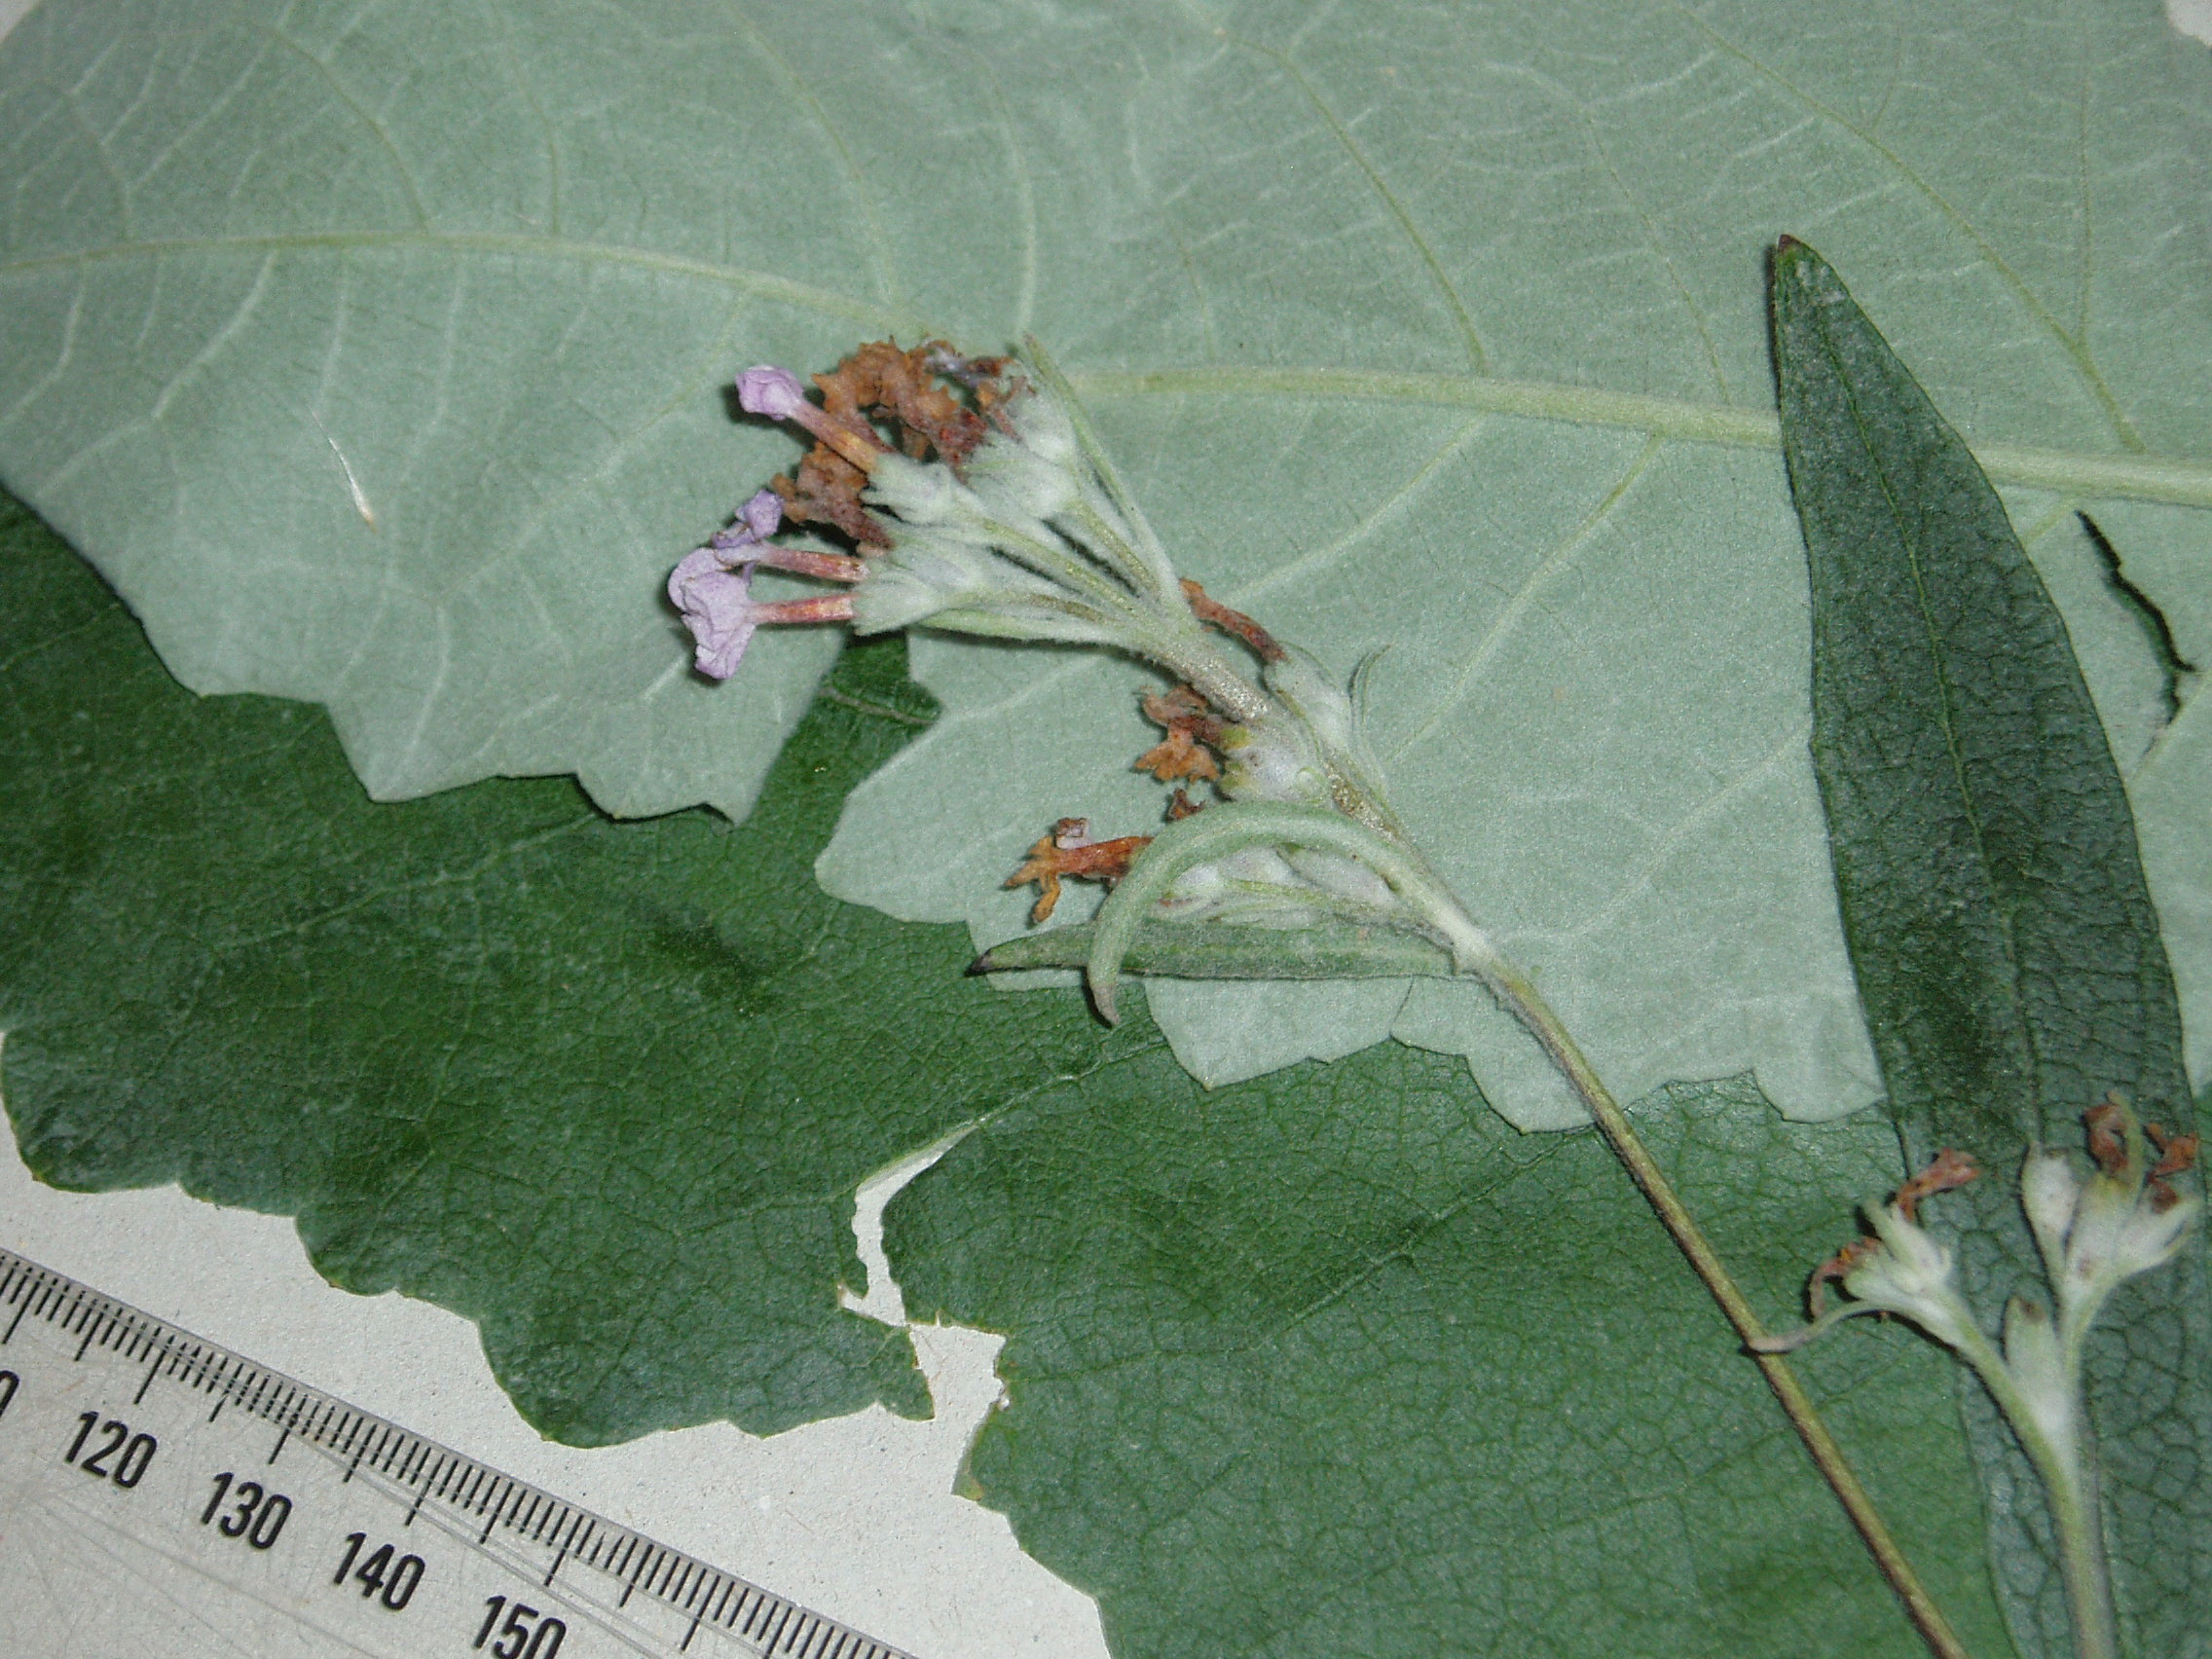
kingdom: Plantae
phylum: Tracheophyta
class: Magnoliopsida
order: Lamiales
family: Scrophulariaceae
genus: Buddleja
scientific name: Buddleja crispa
